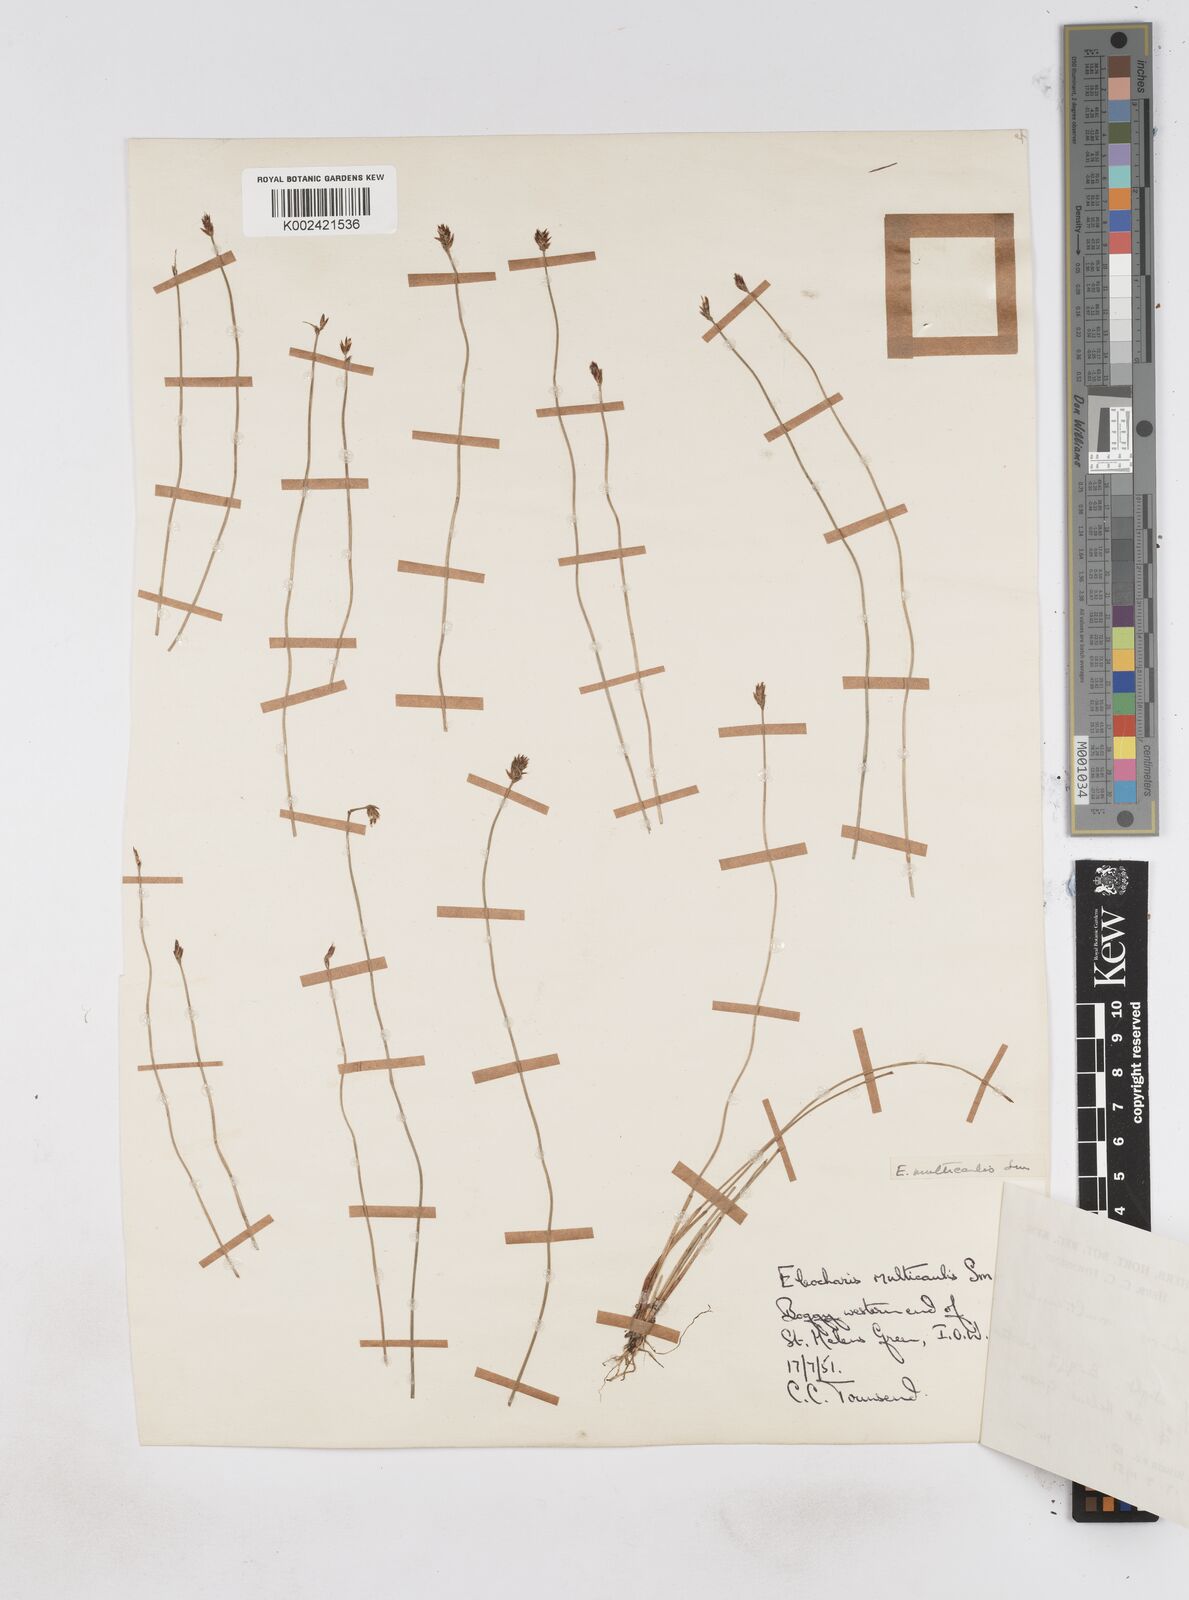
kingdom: Plantae
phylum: Tracheophyta
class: Liliopsida
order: Poales
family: Cyperaceae
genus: Eleocharis
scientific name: Eleocharis multicaulis
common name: Many-stalked spike-rush
